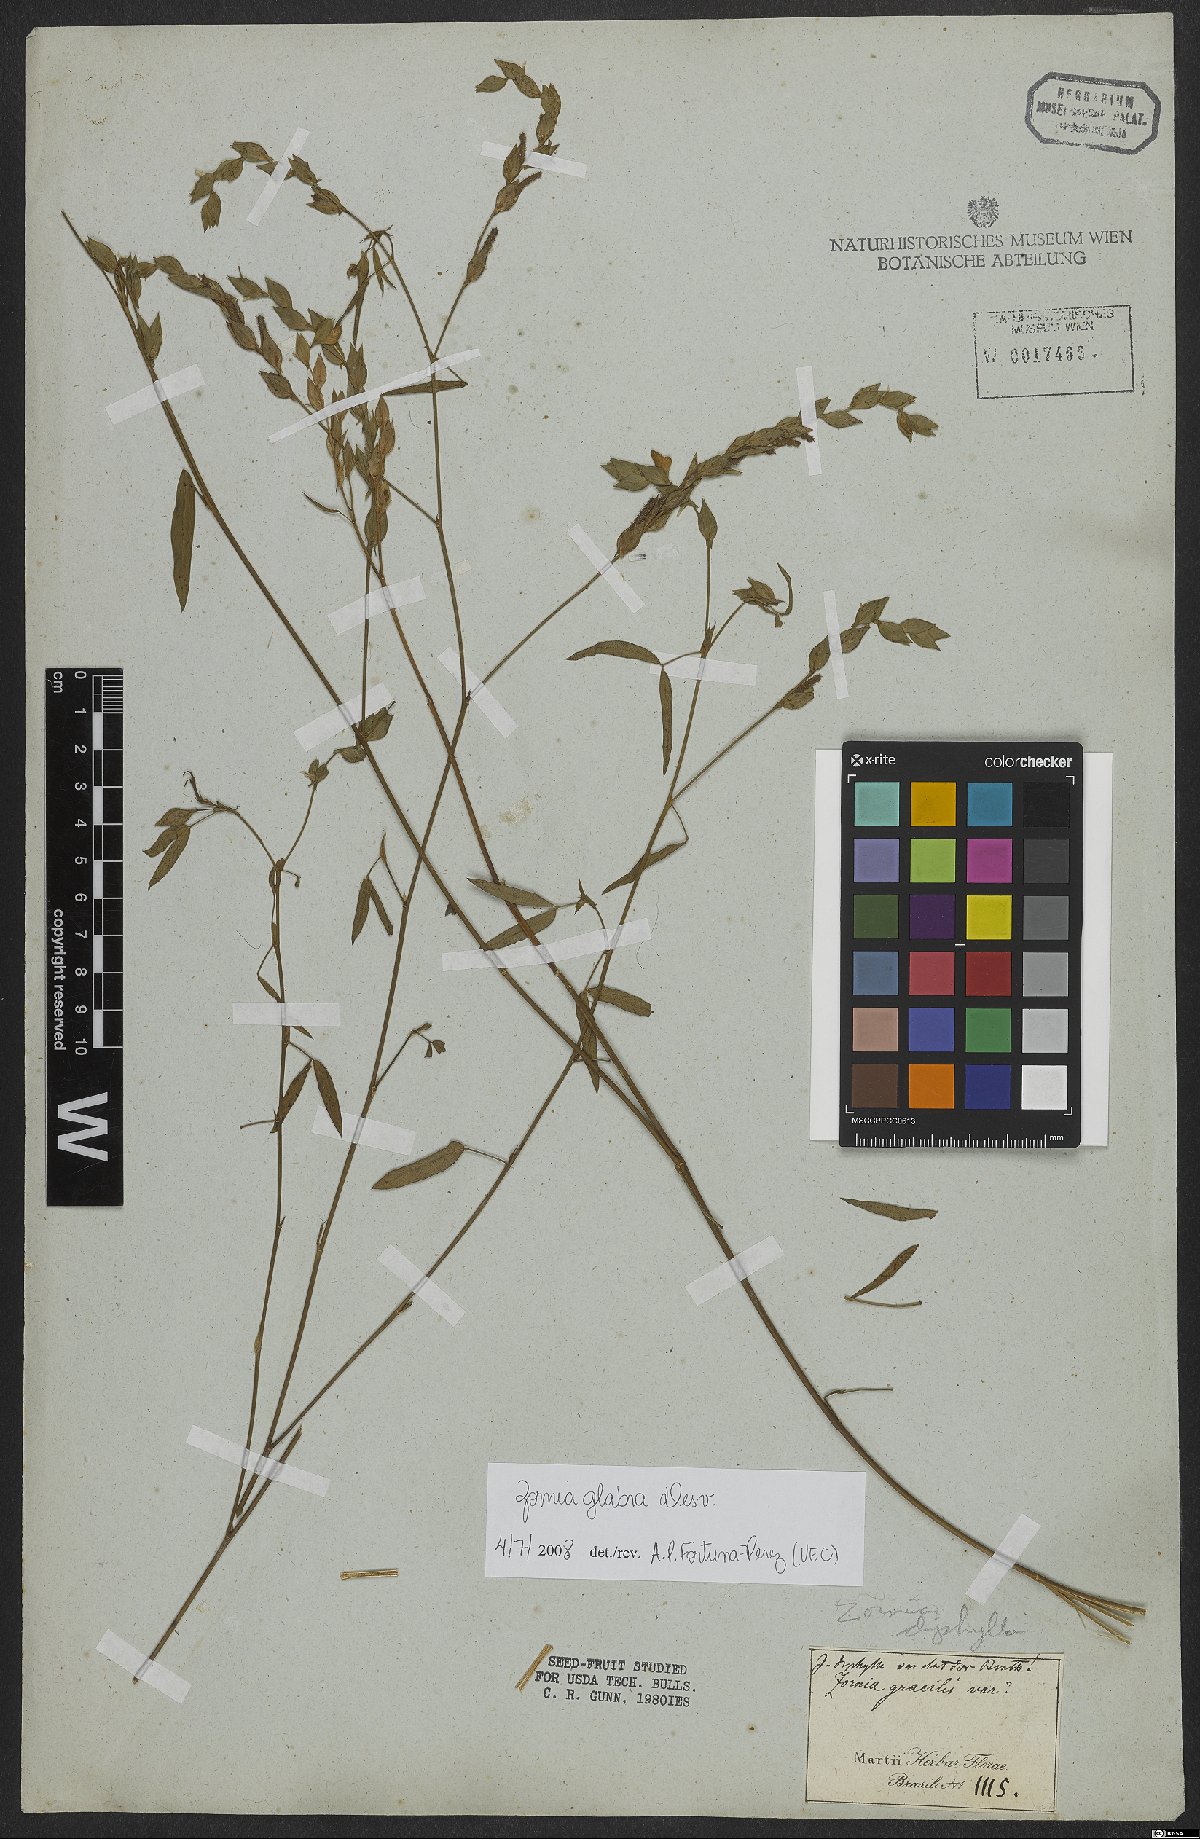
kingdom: Plantae
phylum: Tracheophyta
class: Magnoliopsida
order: Fabales
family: Fabaceae
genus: Zornia
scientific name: Zornia glabra
